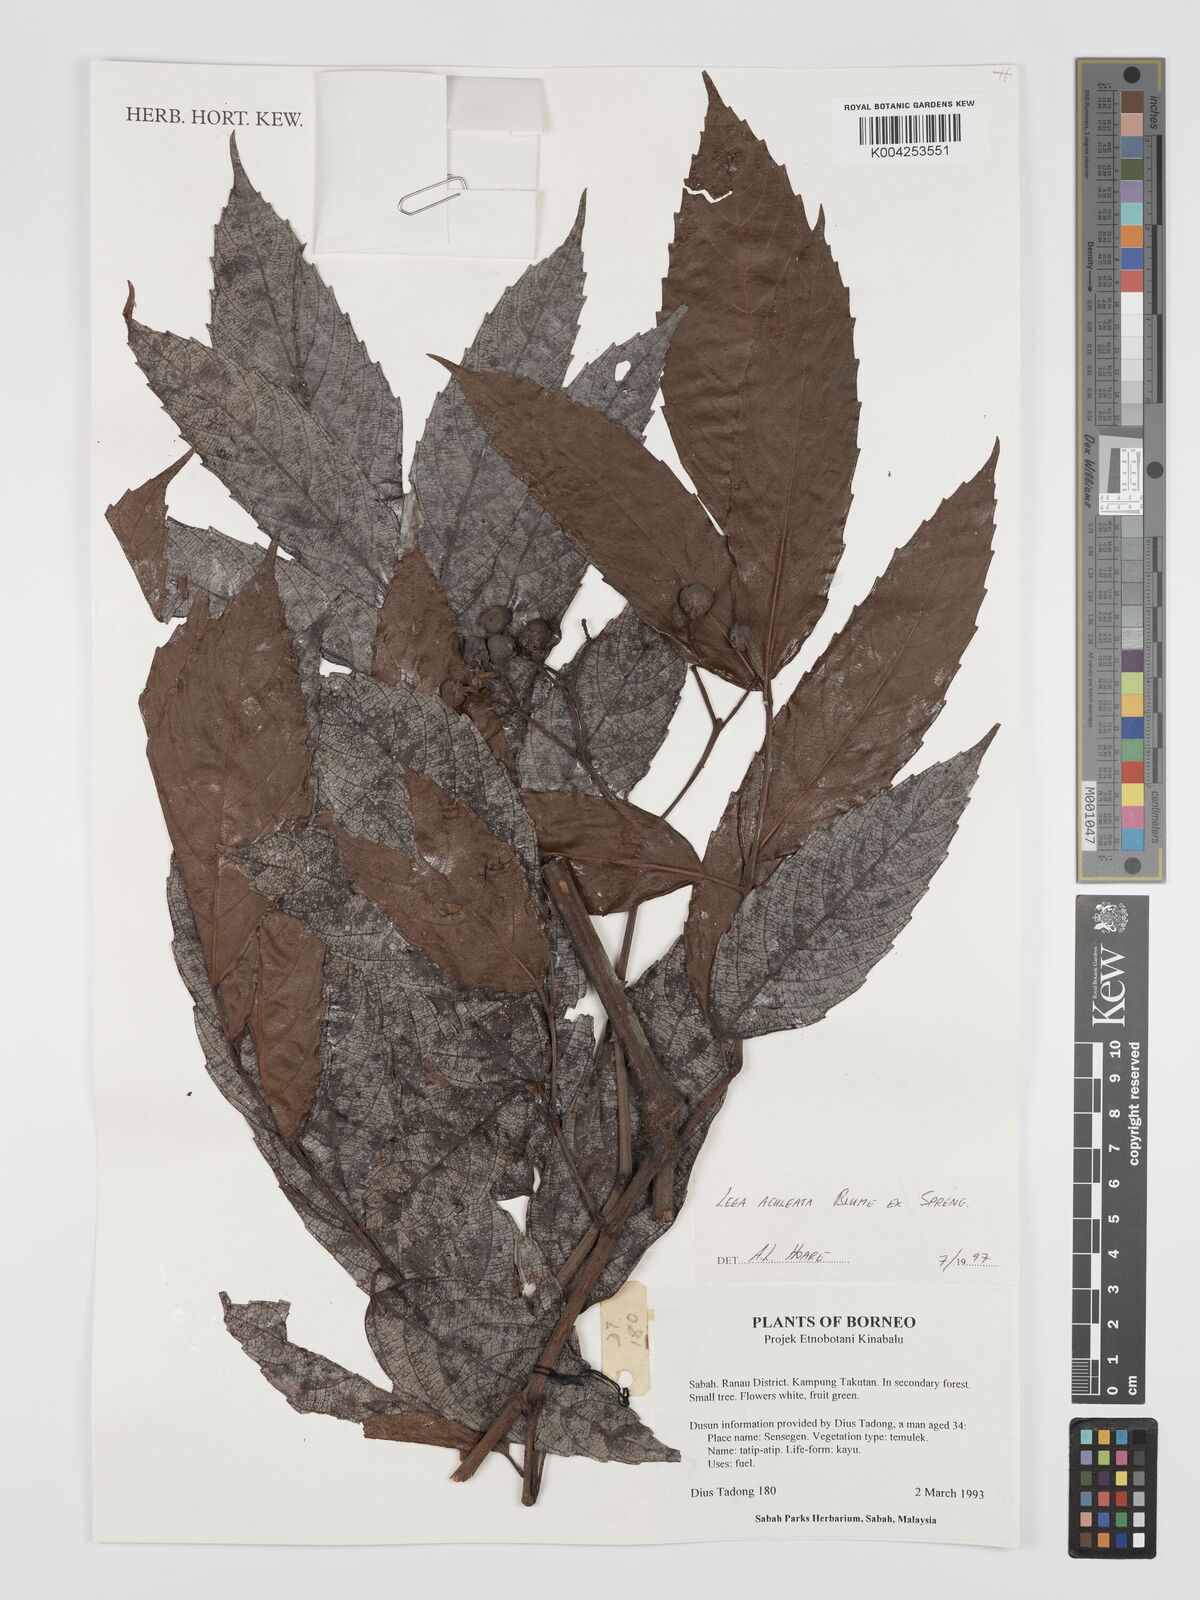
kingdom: Plantae
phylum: Tracheophyta
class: Magnoliopsida
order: Vitales
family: Vitaceae
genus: Leea
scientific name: Leea aculeata
